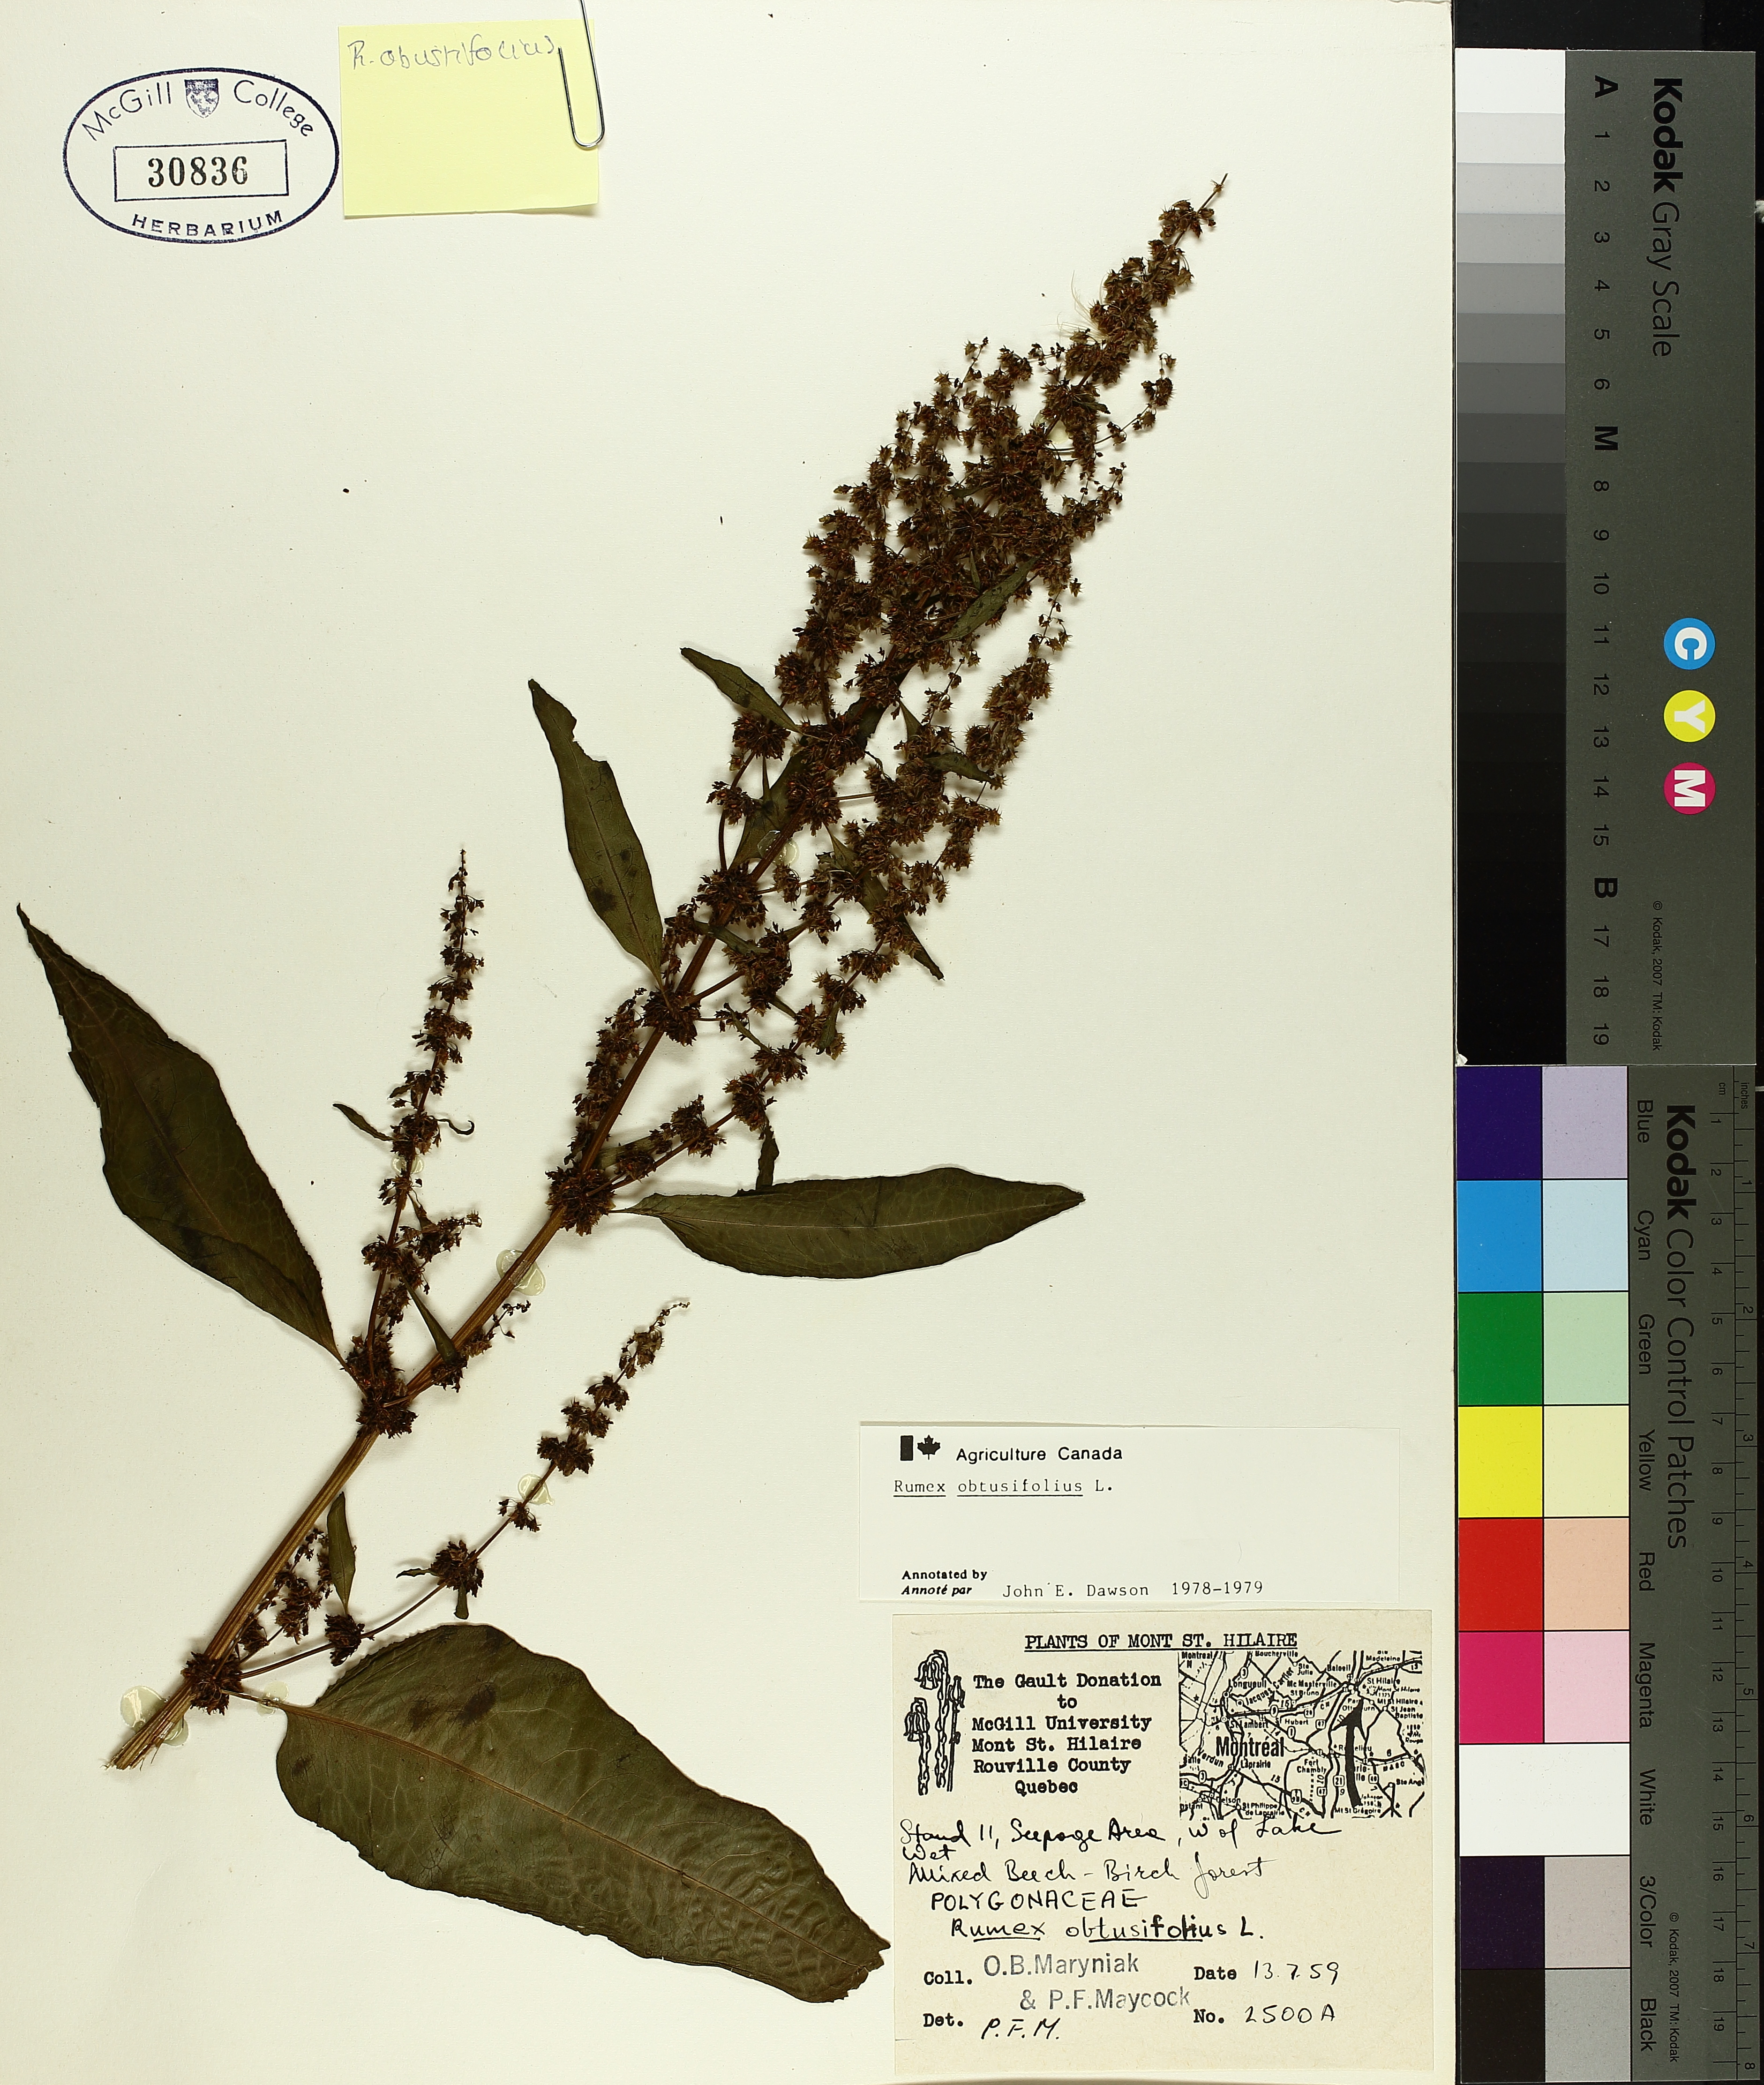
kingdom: Plantae
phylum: Tracheophyta
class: Magnoliopsida
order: Caryophyllales
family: Polygonaceae
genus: Rumex
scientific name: Rumex obtusifolius
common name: Bitter dock
